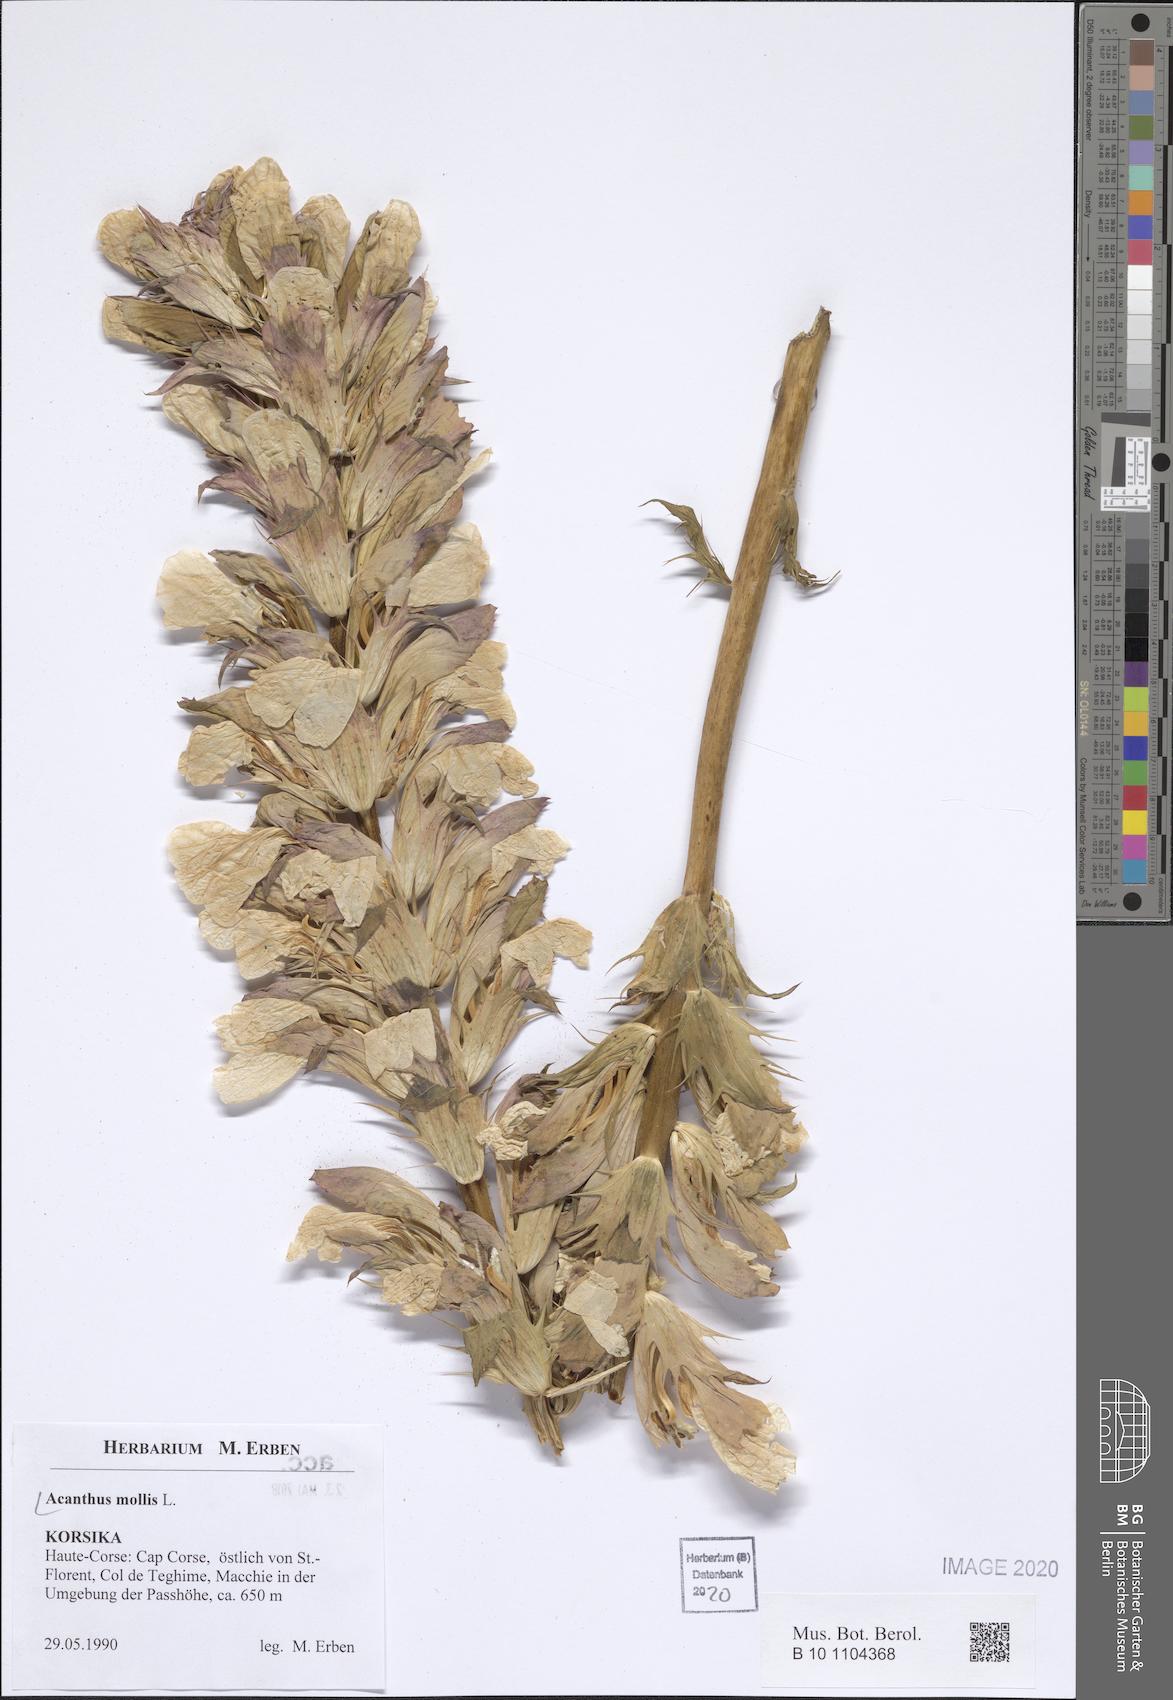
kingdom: Plantae
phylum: Tracheophyta
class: Magnoliopsida
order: Lamiales
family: Acanthaceae
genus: Acanthus
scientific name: Acanthus mollis
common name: Bear's-breech
